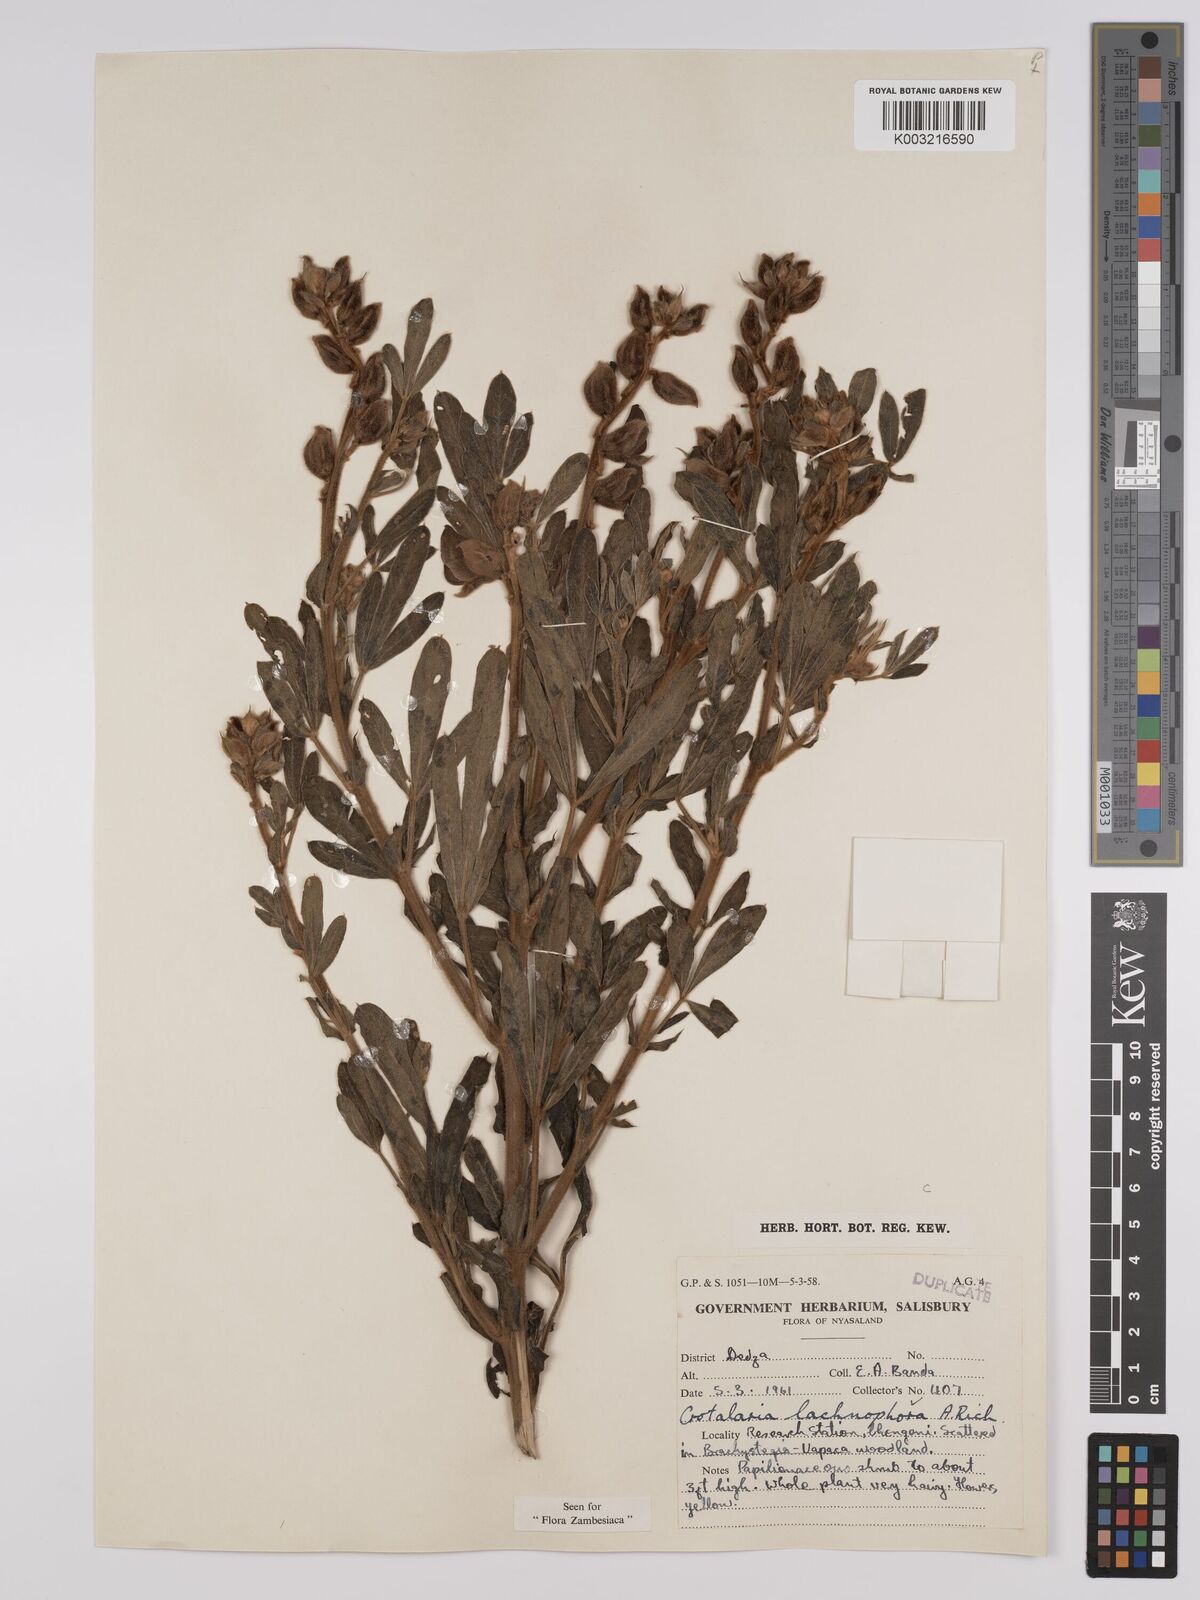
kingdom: Plantae
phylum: Tracheophyta
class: Magnoliopsida
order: Fabales
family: Fabaceae
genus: Crotalaria
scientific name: Crotalaria lachnophora
